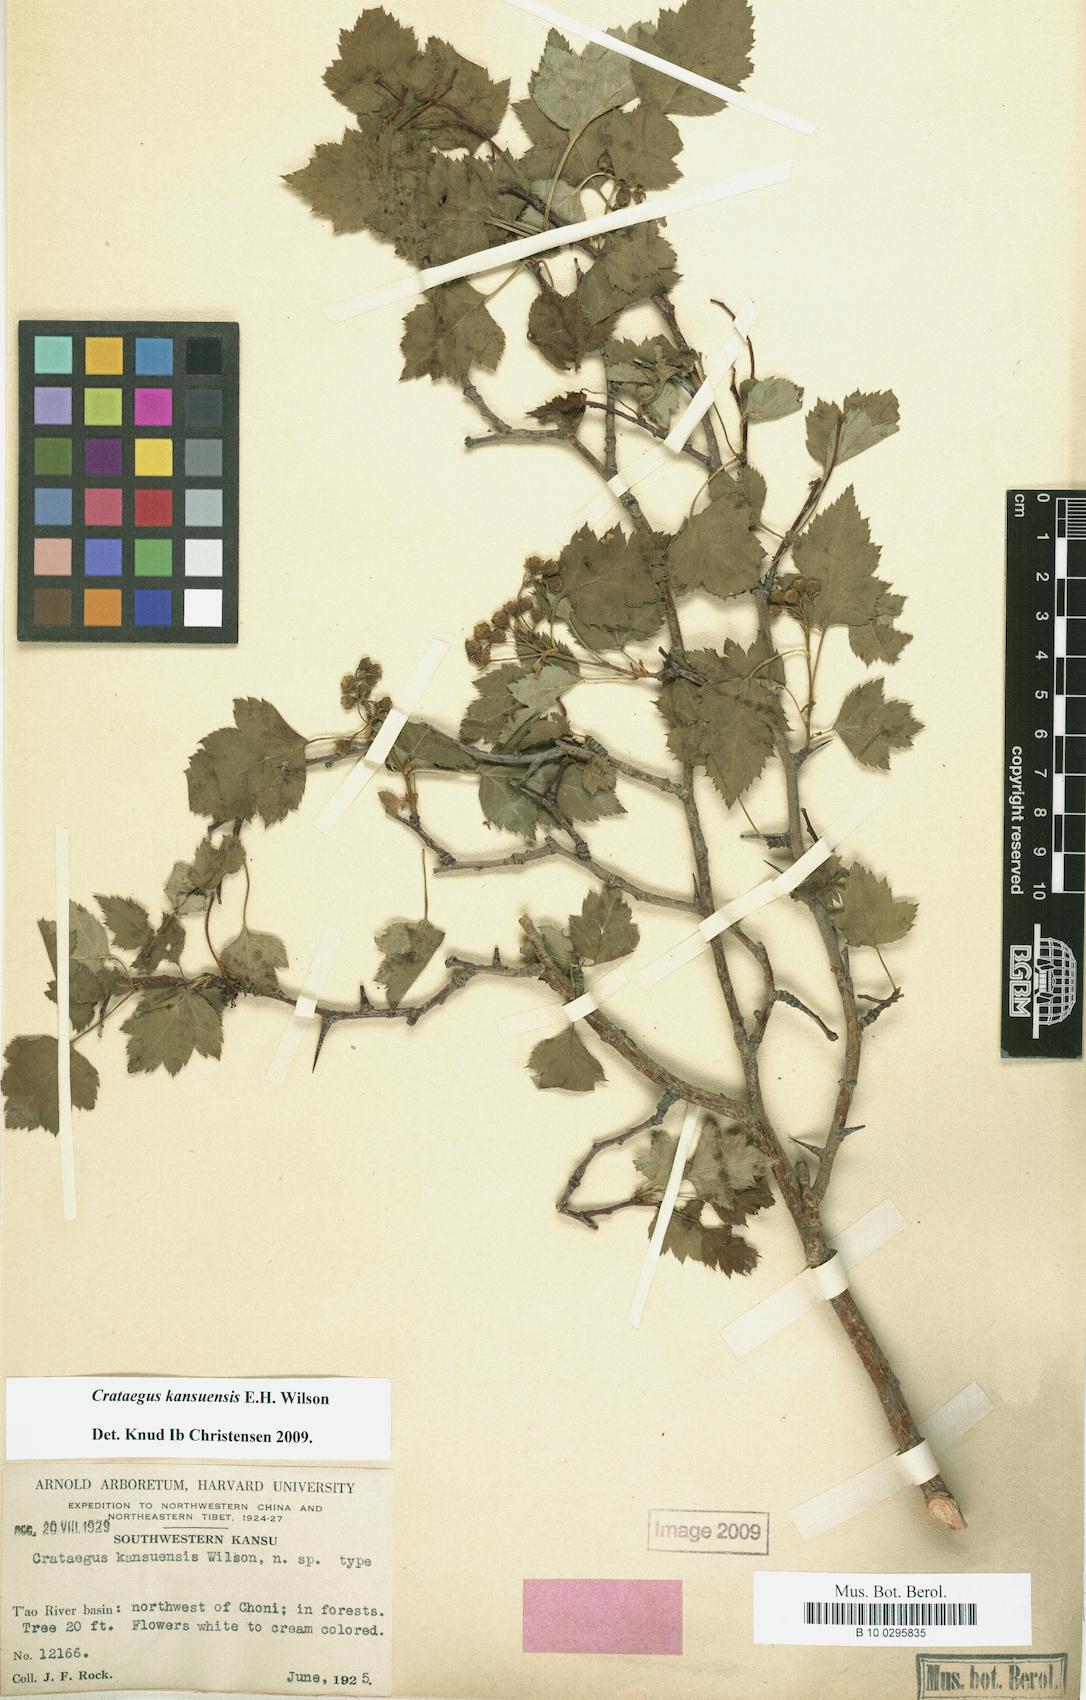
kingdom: Plantae
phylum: Tracheophyta
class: Magnoliopsida
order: Rosales
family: Rosaceae
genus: Crataegus
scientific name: Crataegus kansuensis
